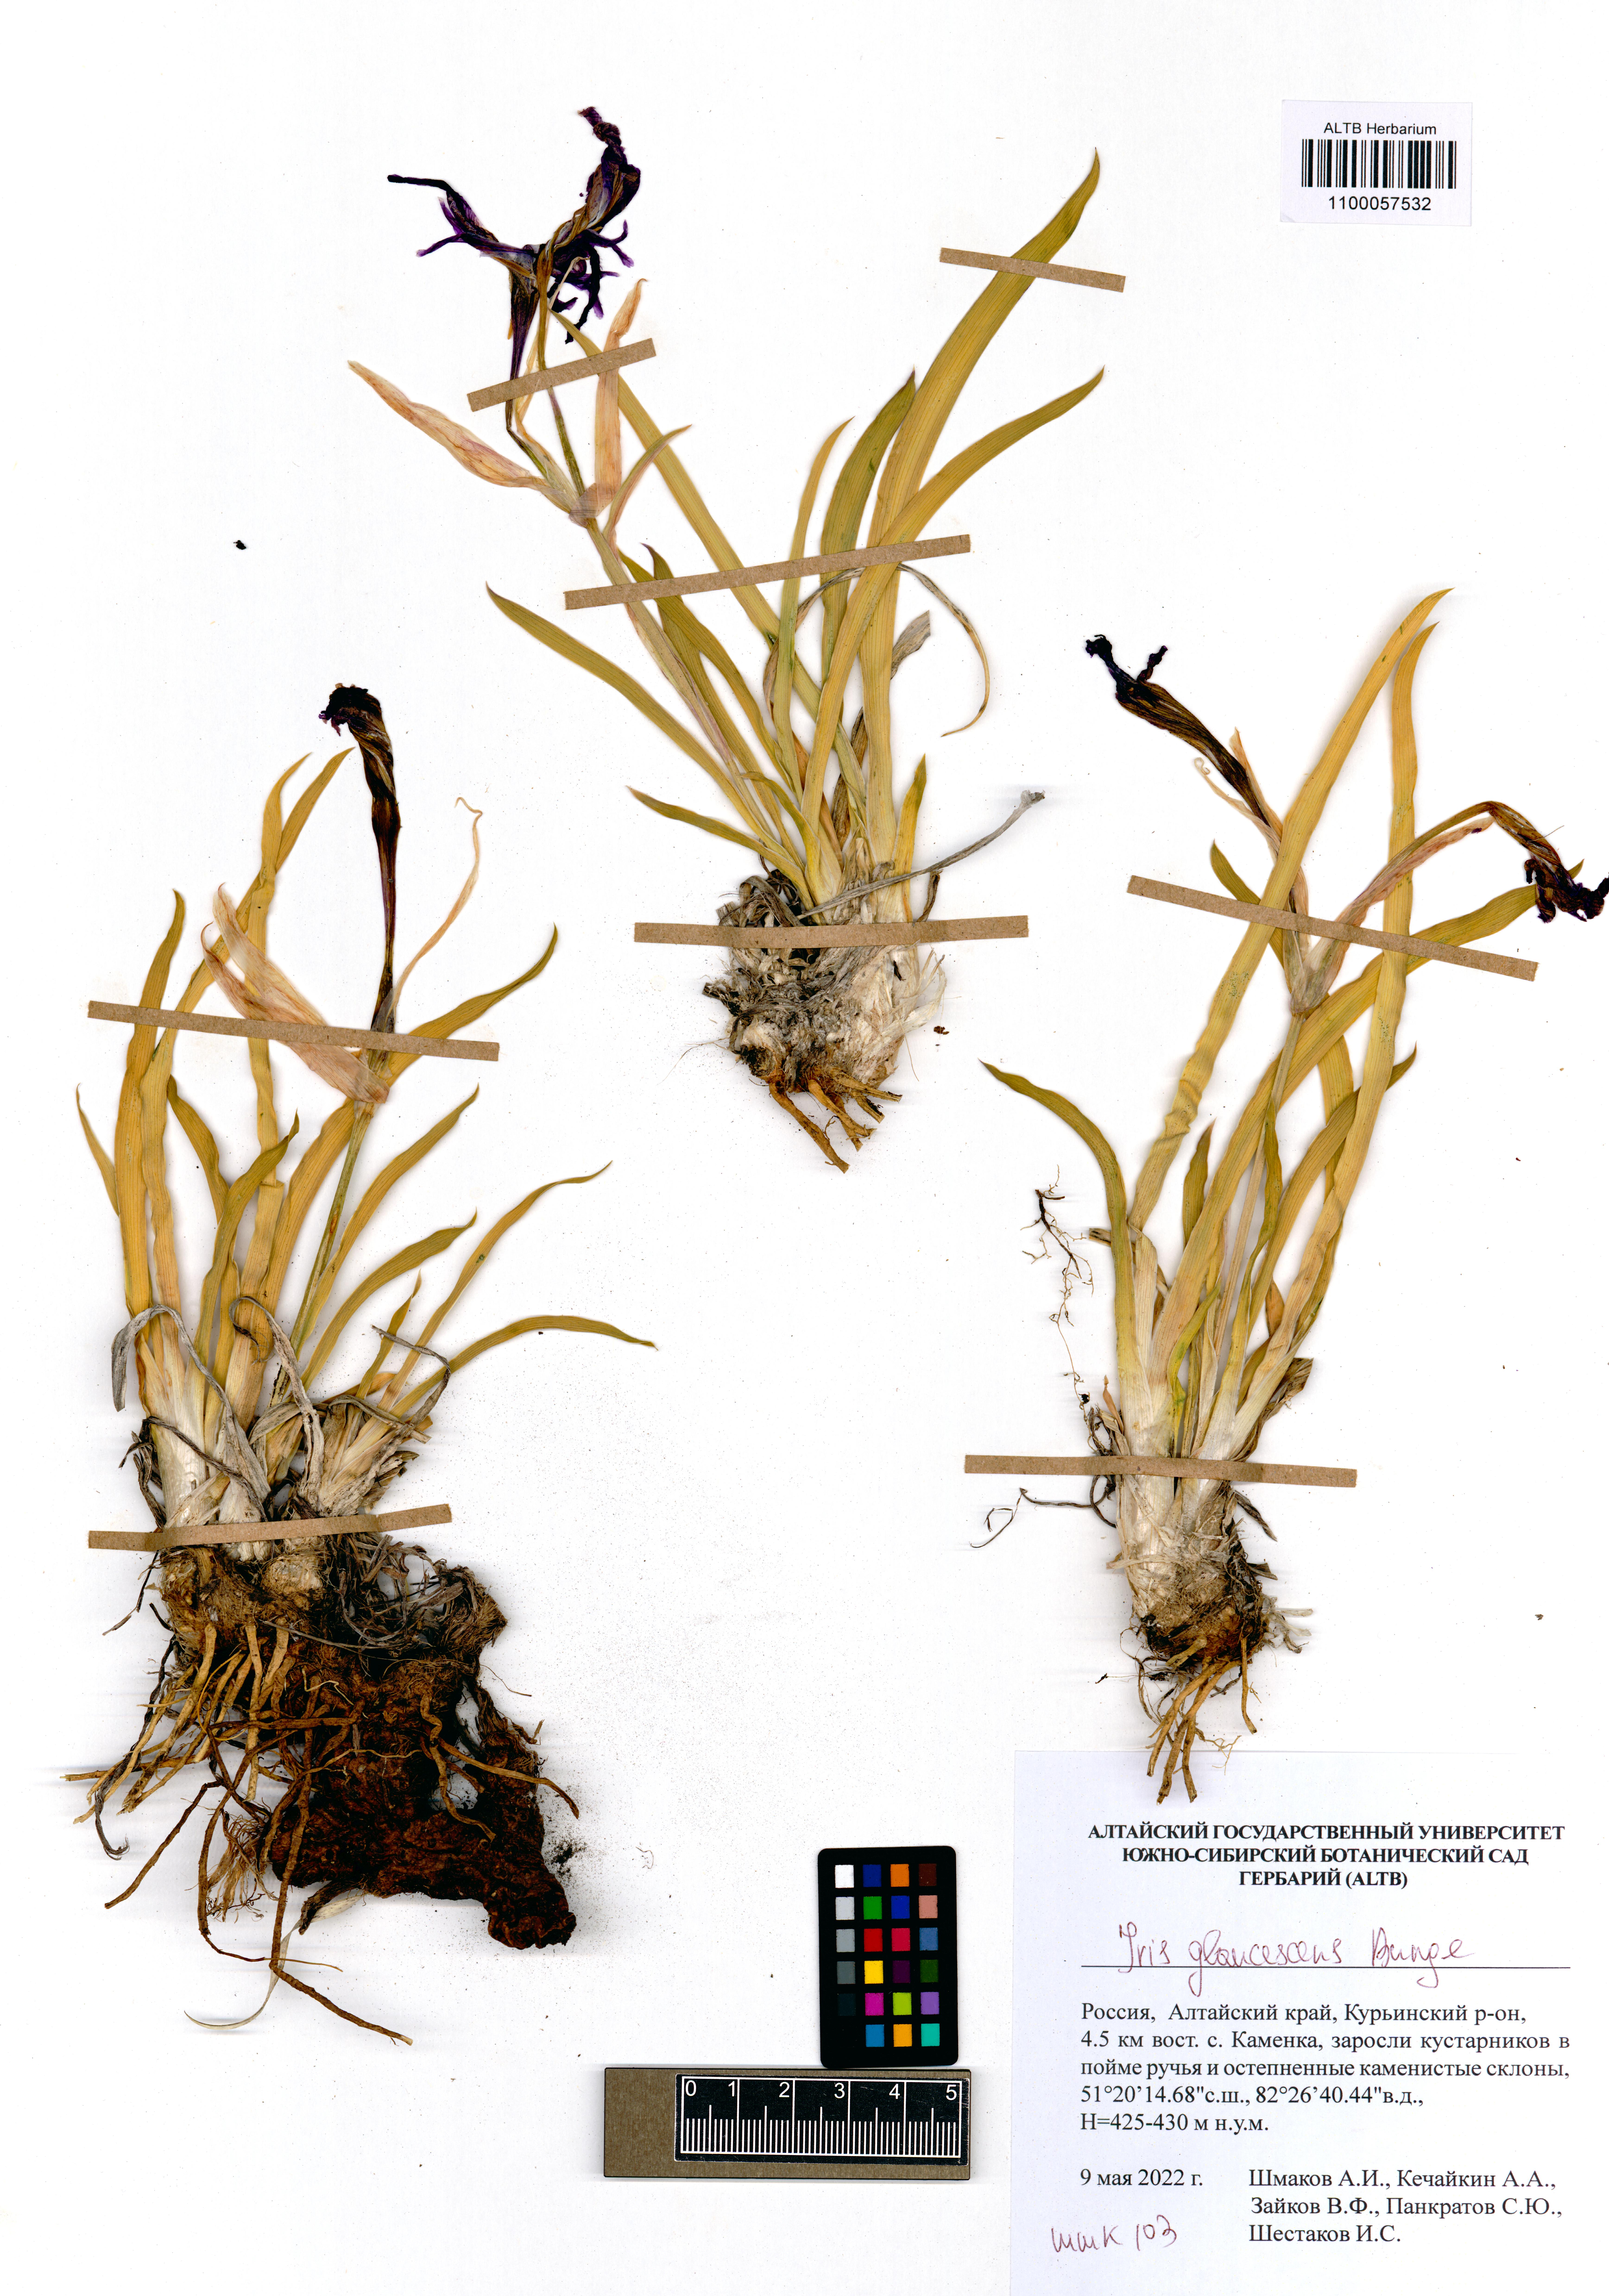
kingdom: Plantae
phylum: Tracheophyta
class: Liliopsida
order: Asparagales
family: Iridaceae
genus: Iris
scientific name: Iris glaucescens
